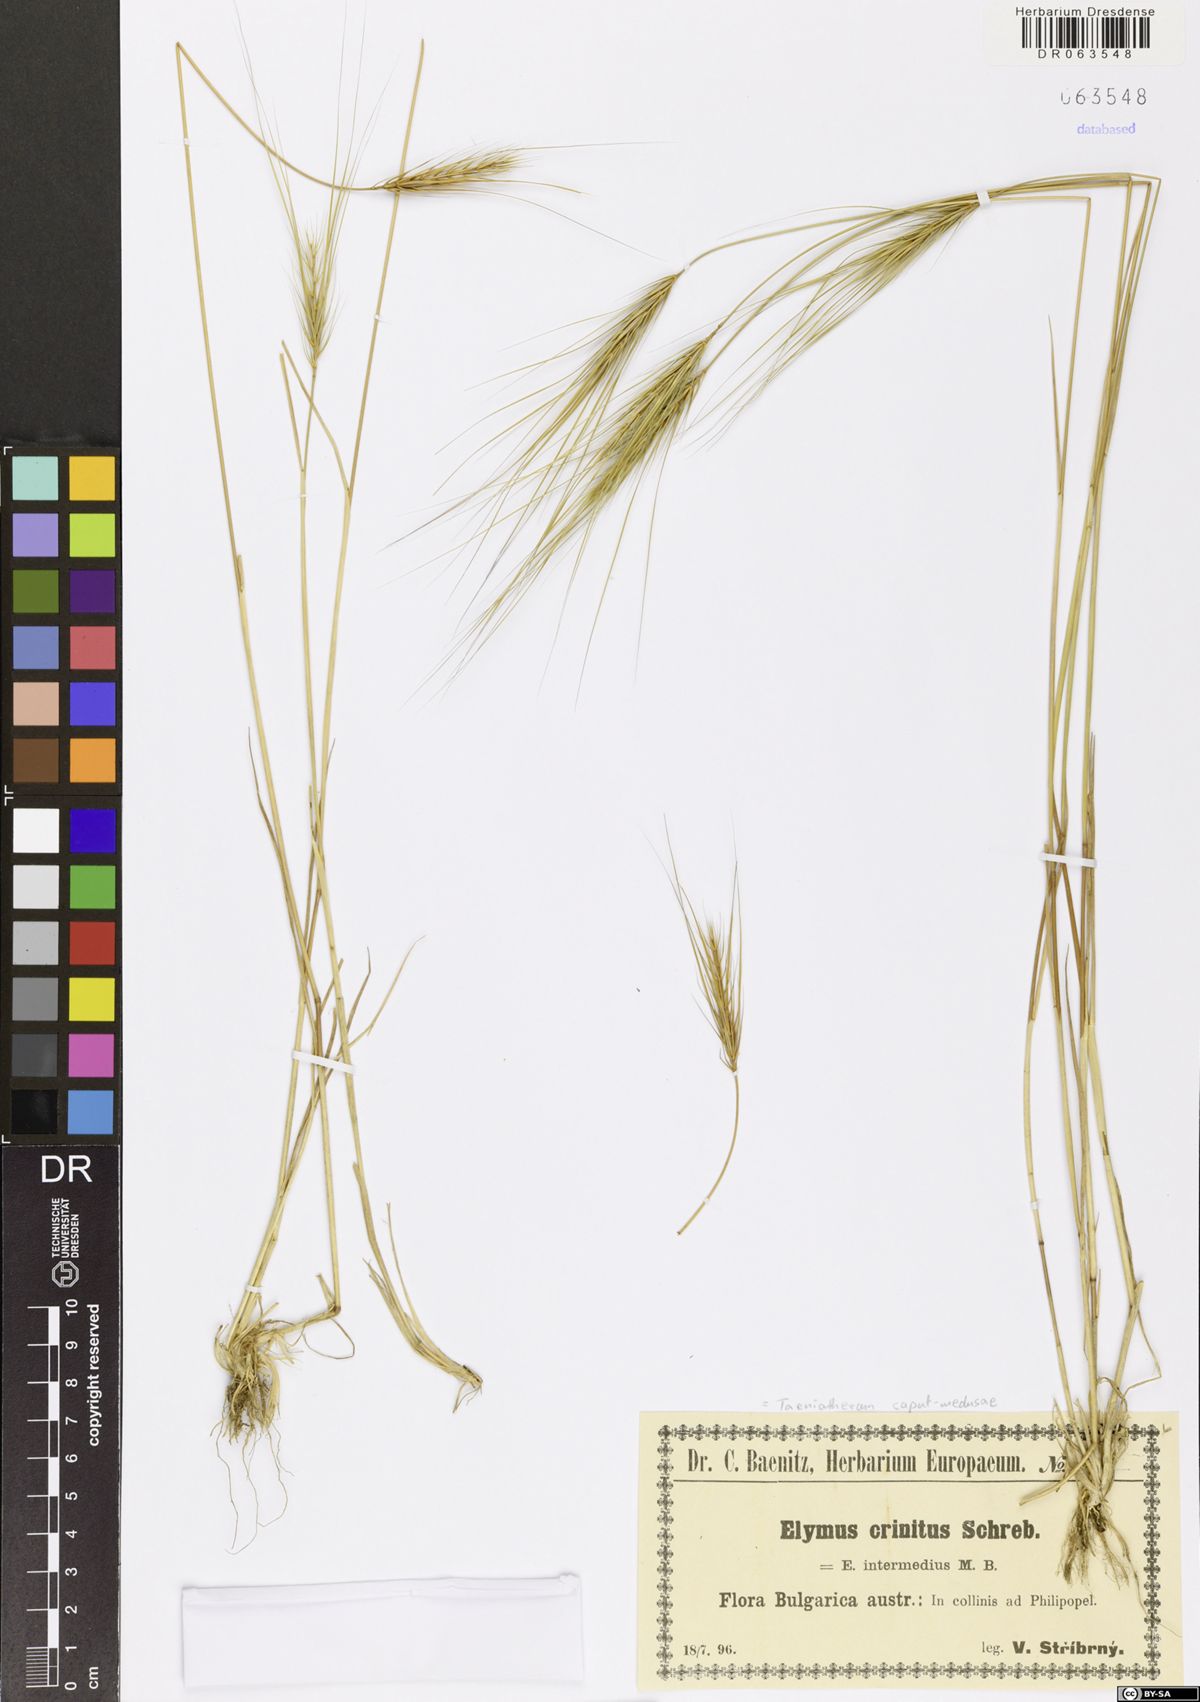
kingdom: Plantae
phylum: Tracheophyta
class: Liliopsida
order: Poales
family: Poaceae
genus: Taeniatherum
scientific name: Taeniatherum caput-medusae
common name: Medusahead
